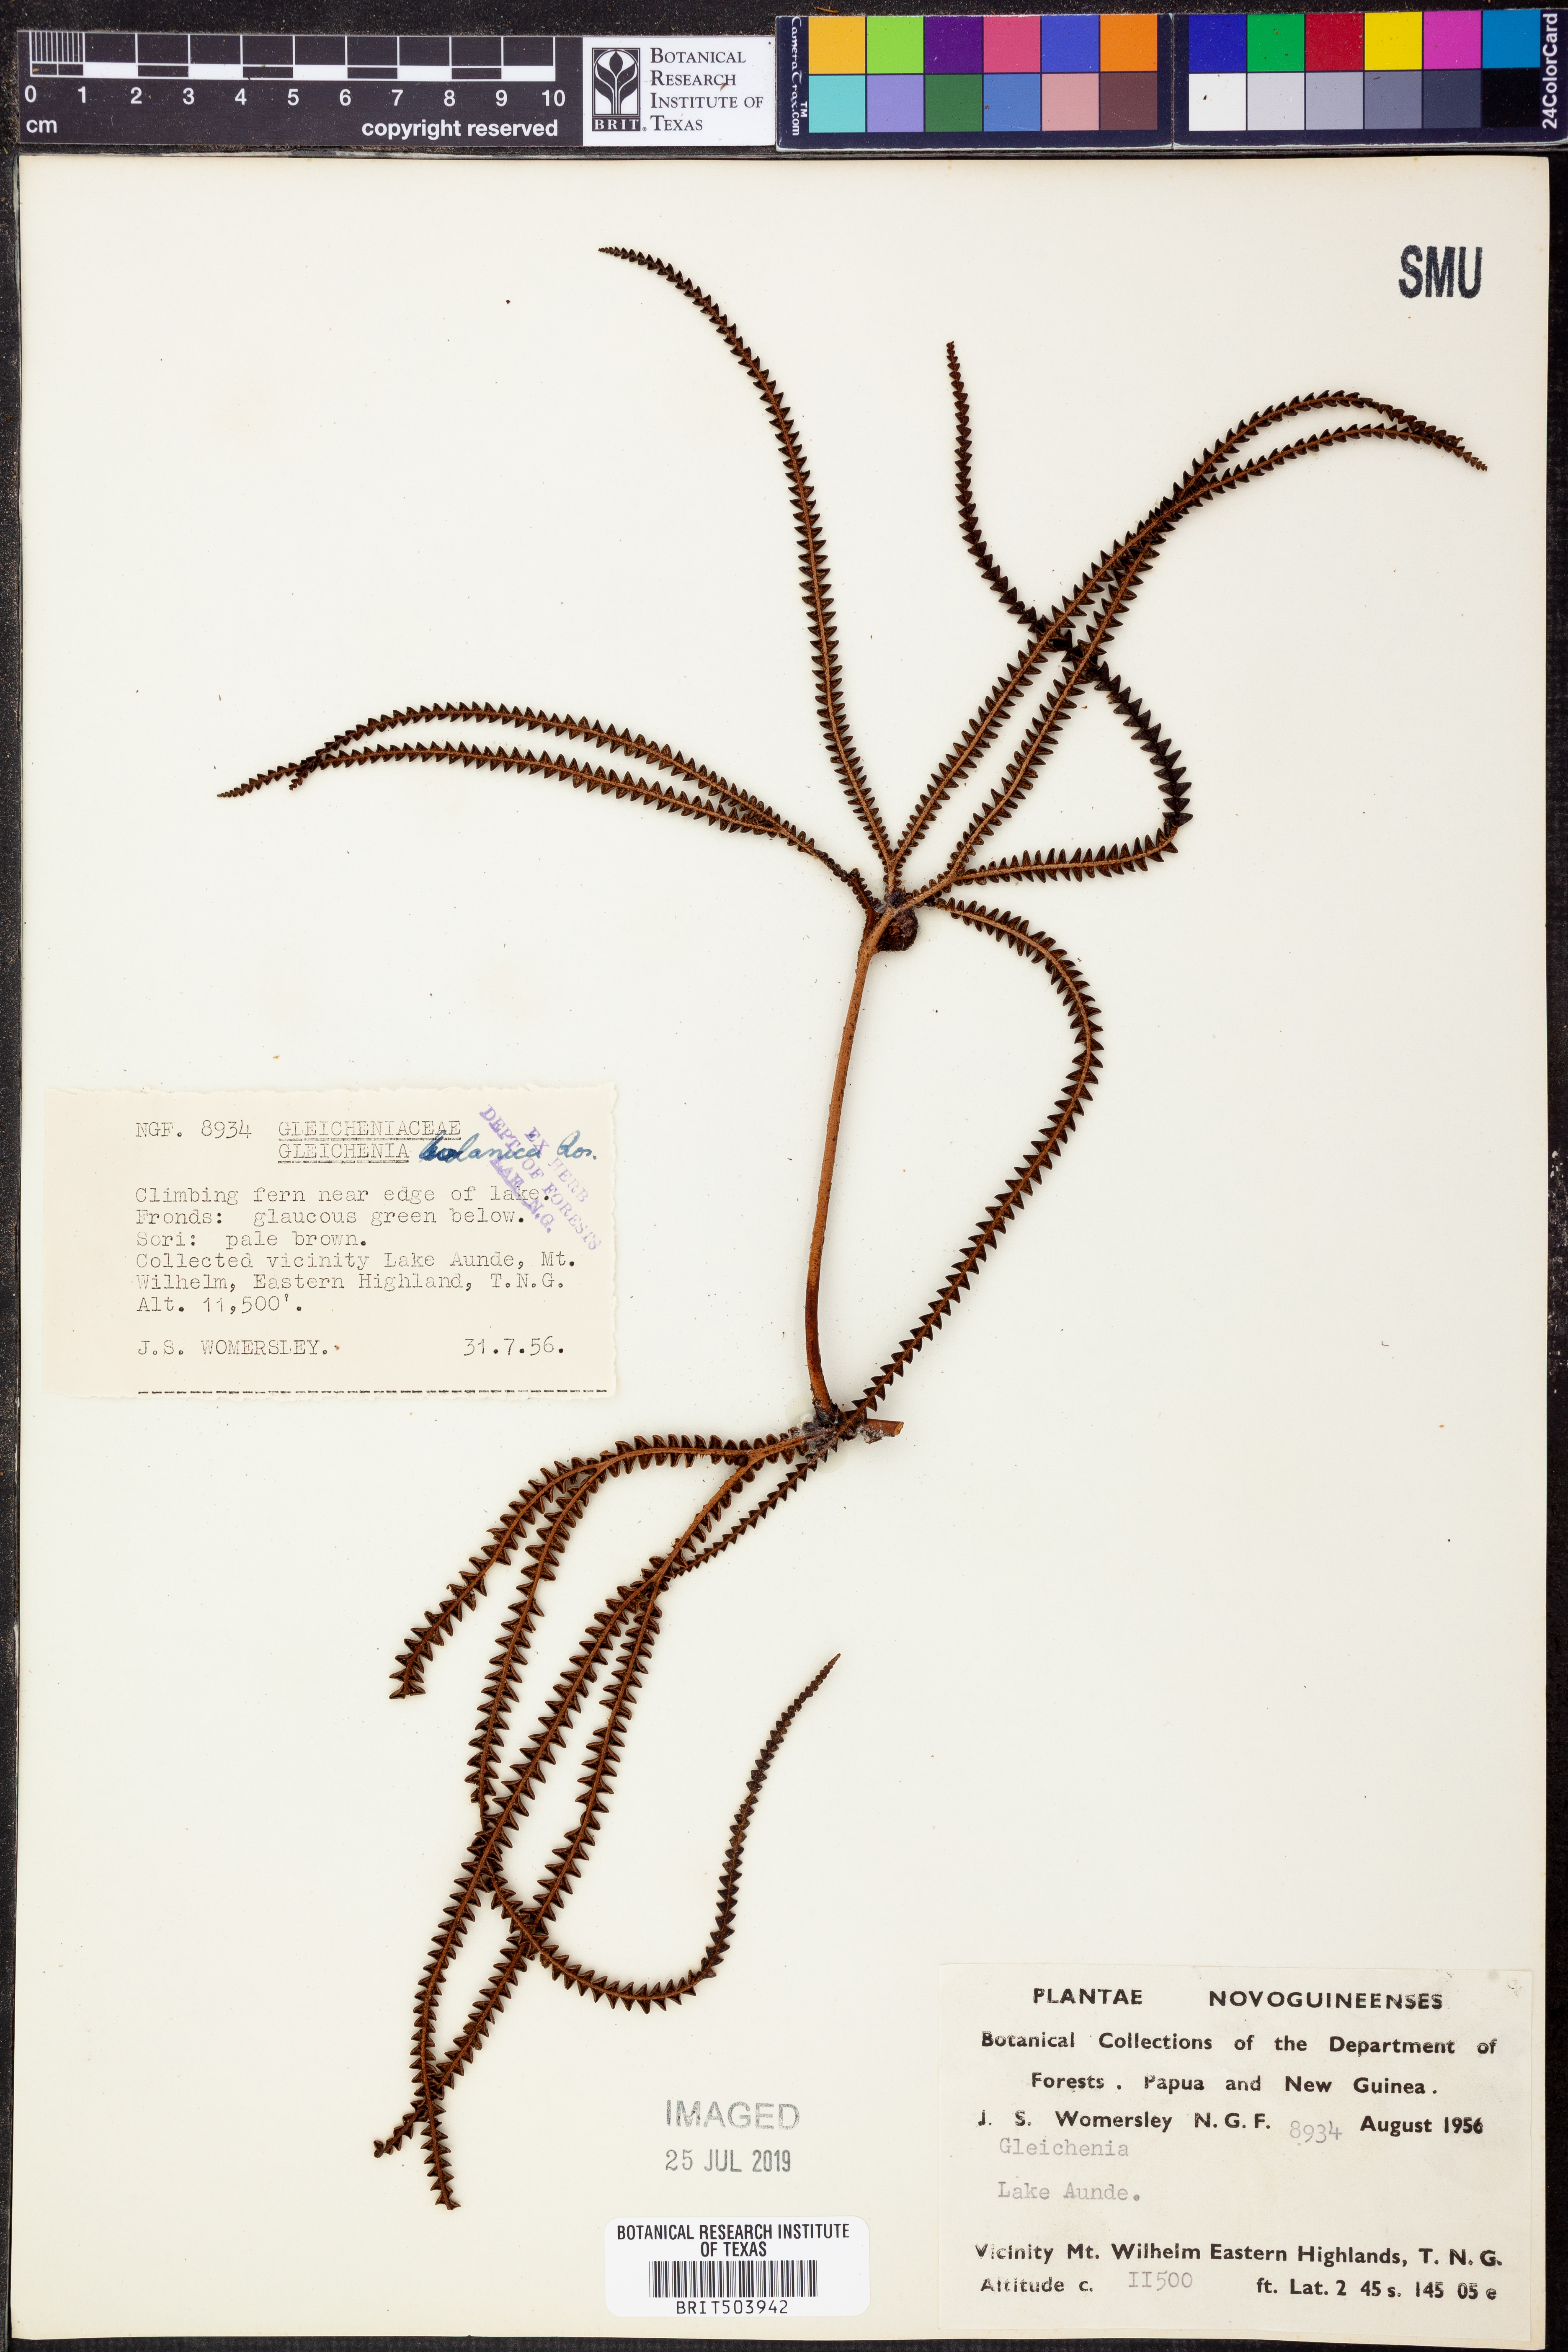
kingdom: Plantae
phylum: Tracheophyta
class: Polypodiopsida
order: Gleicheniales
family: Gleicheniaceae
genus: Sticherus
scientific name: Sticherus bolanicus
